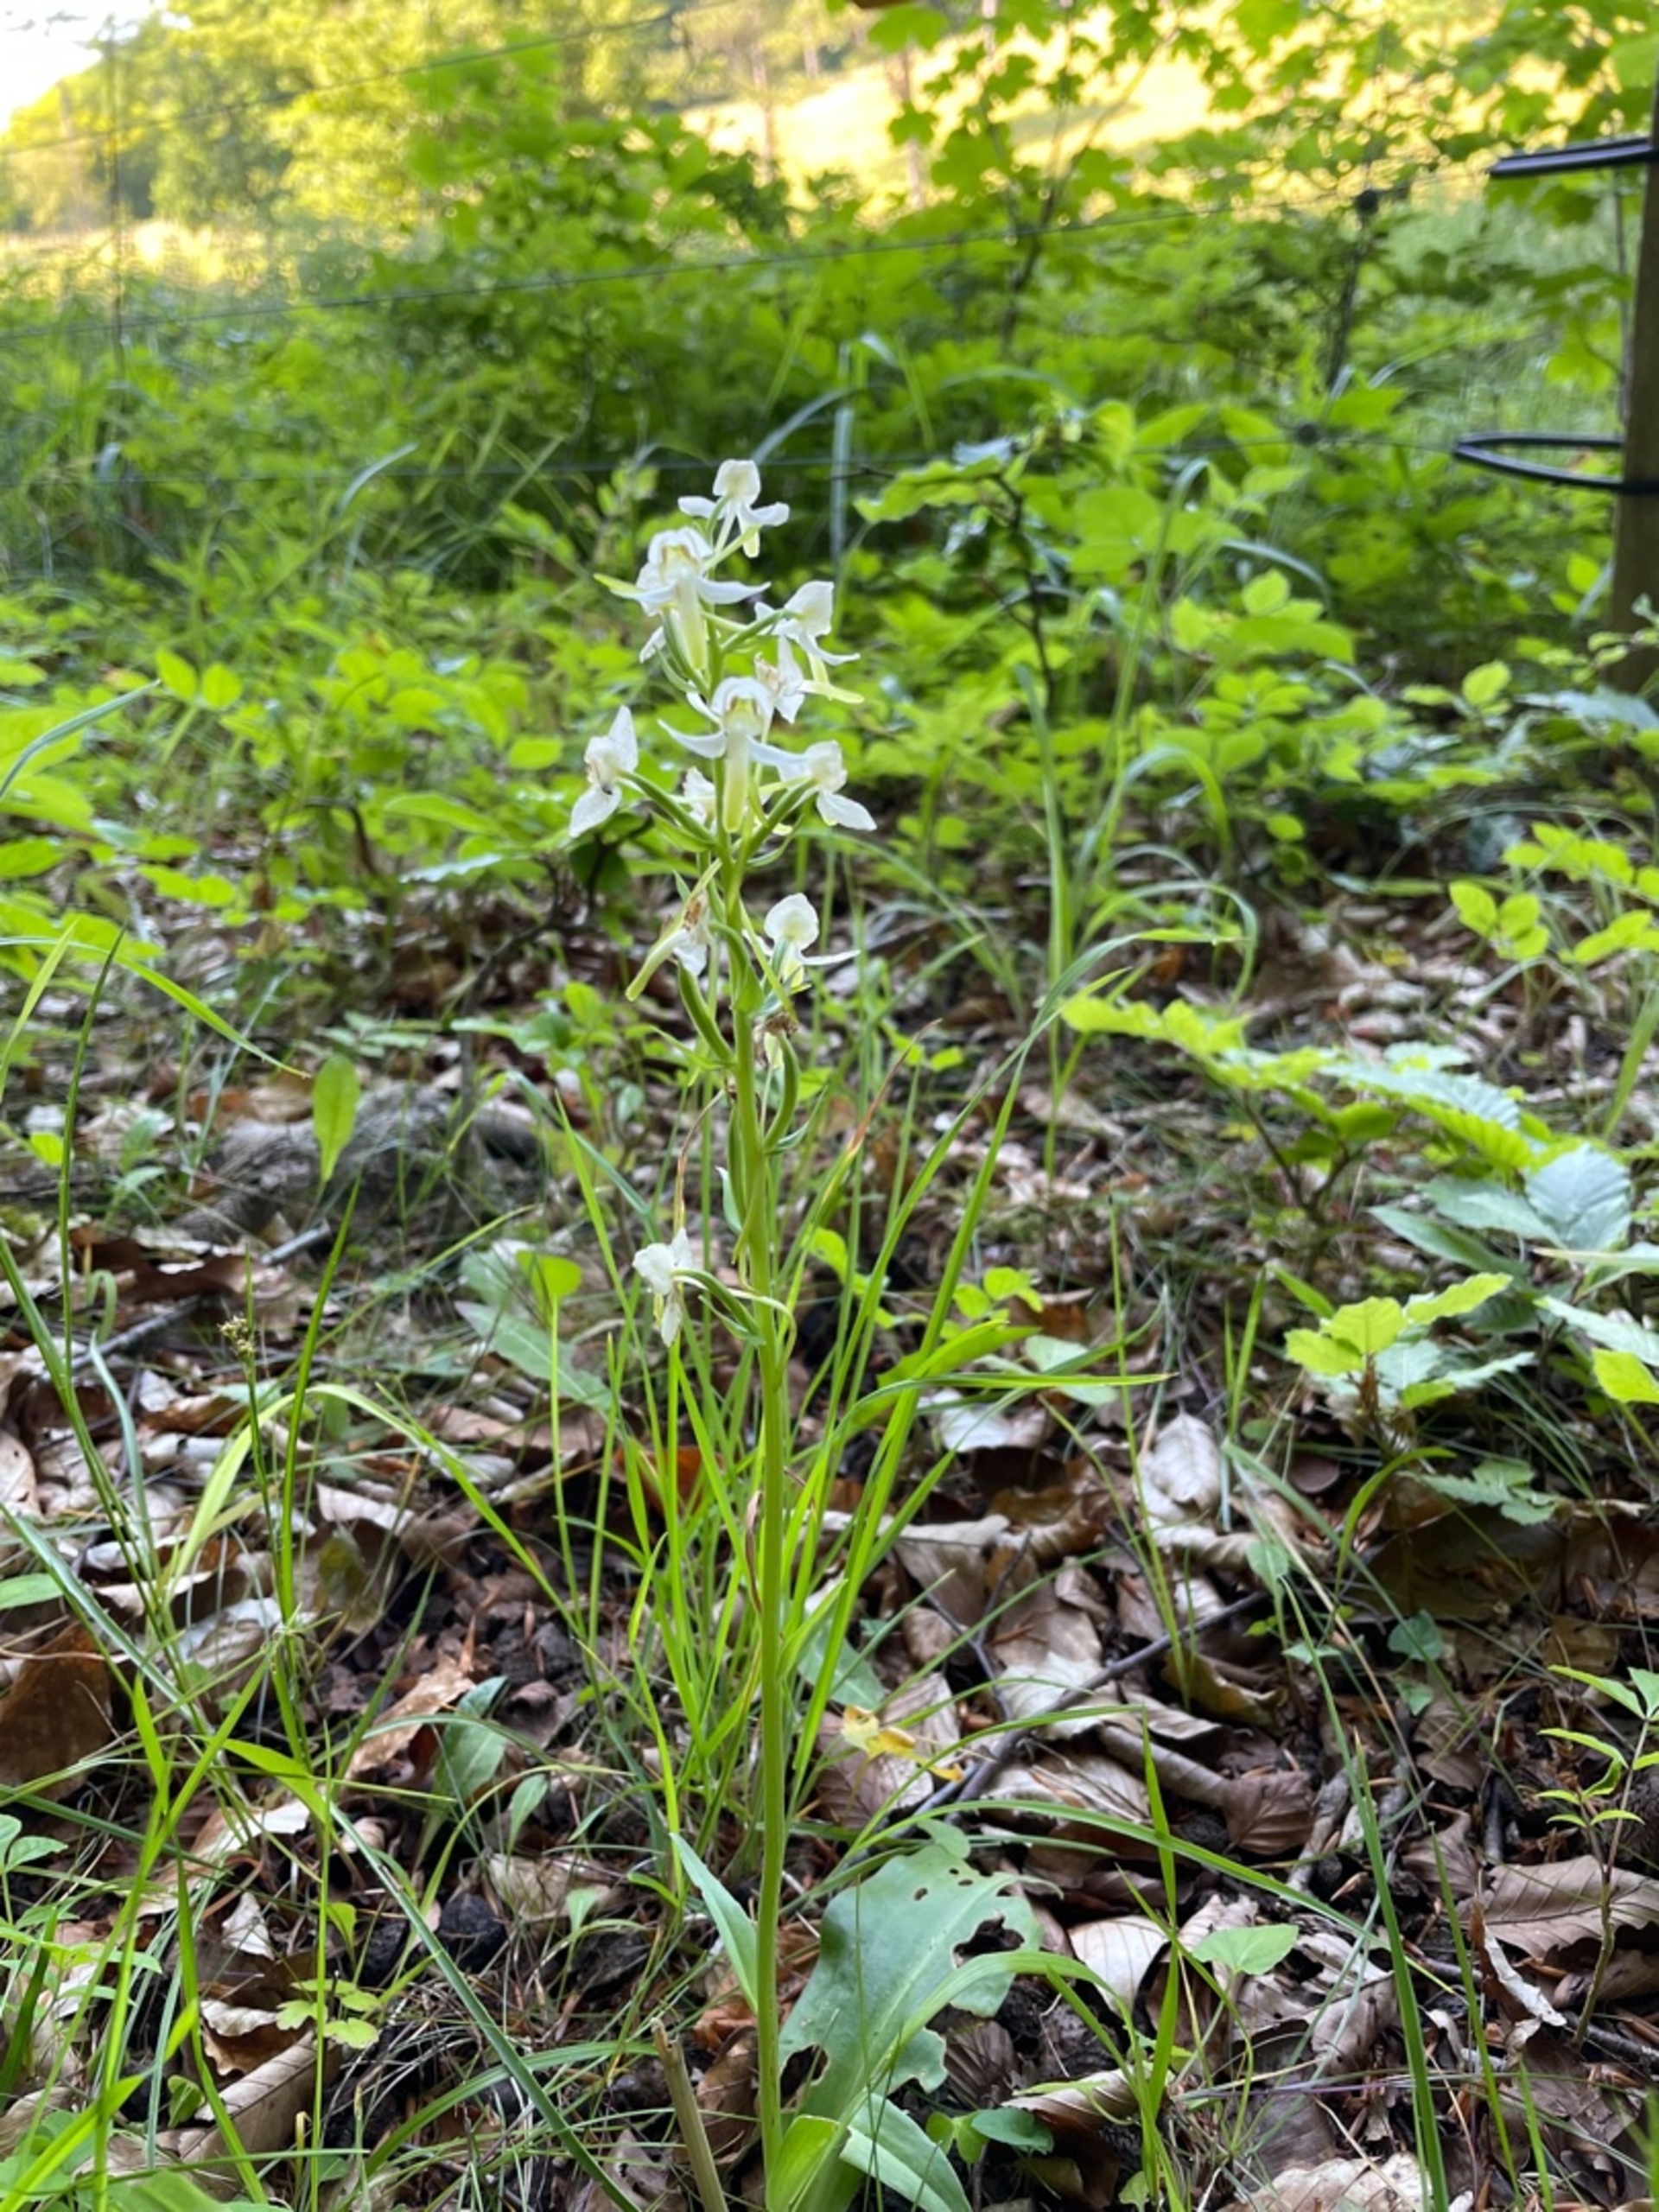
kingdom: Plantae
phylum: Tracheophyta
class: Liliopsida
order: Asparagales
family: Orchidaceae
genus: Platanthera
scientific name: Platanthera chlorantha
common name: Skov-gøgelilje
